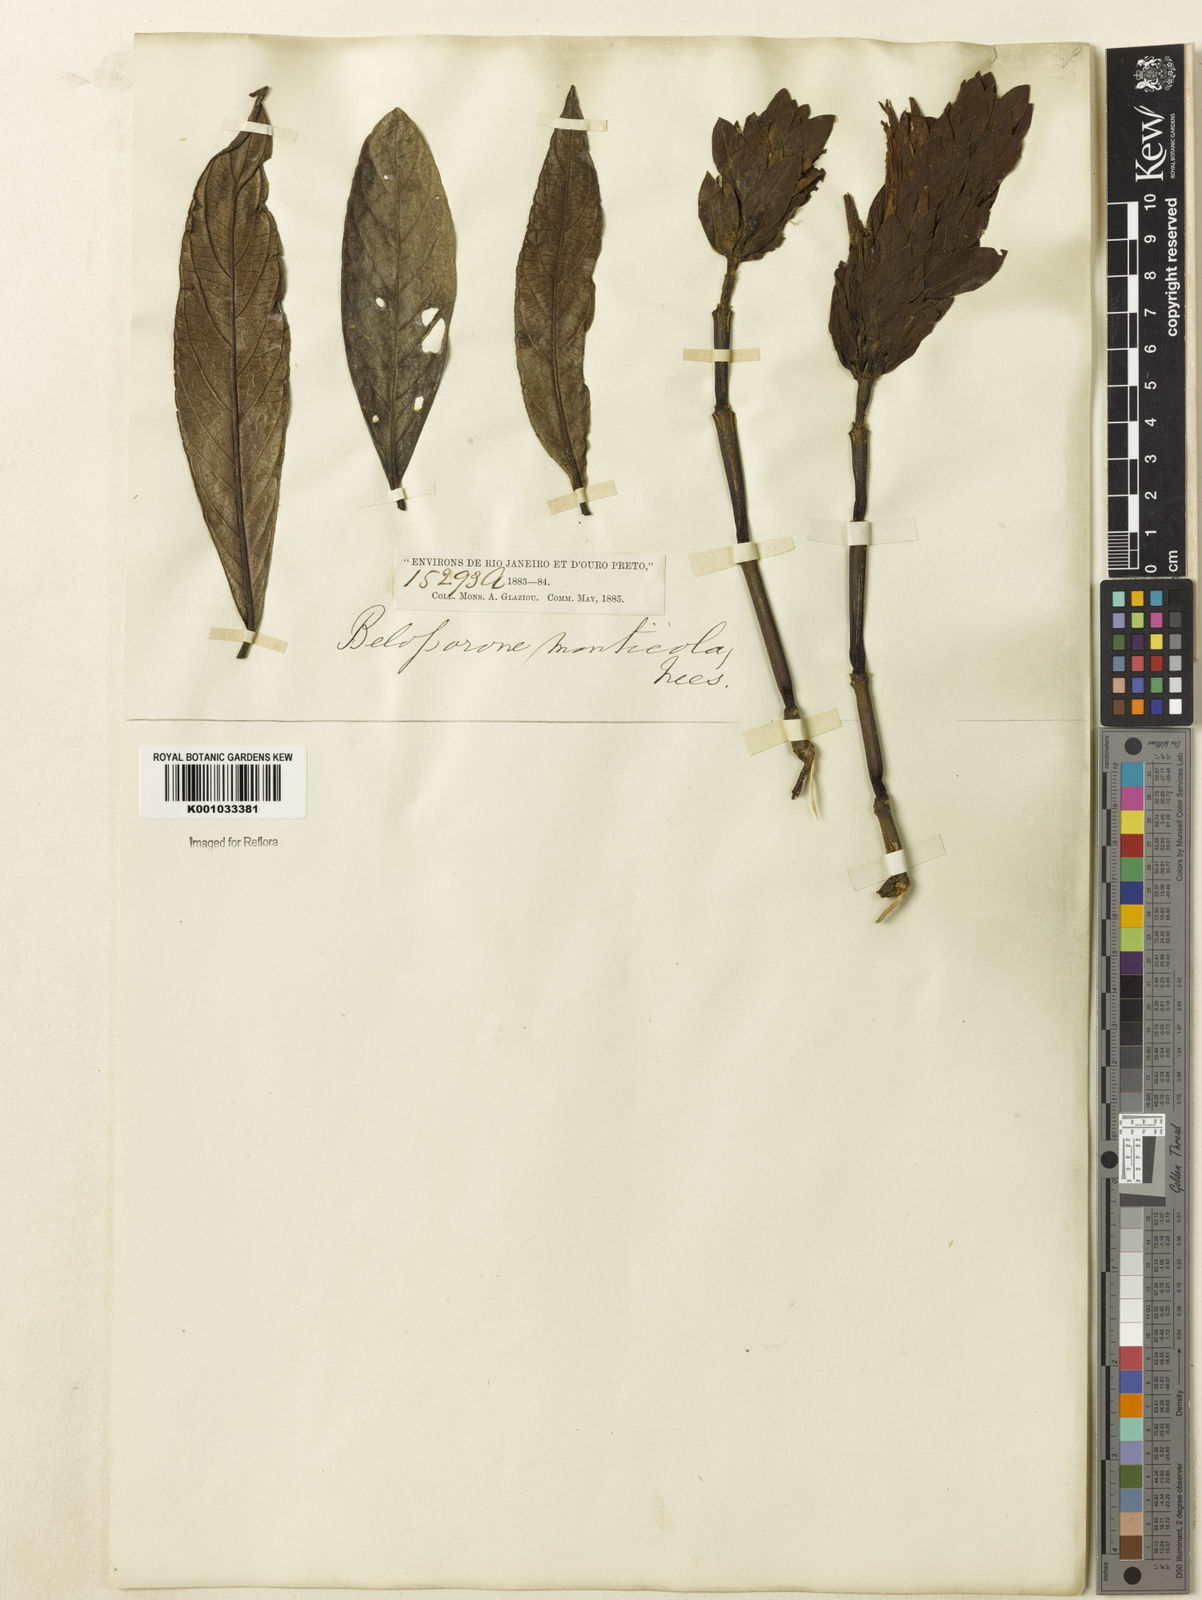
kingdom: Plantae
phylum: Tracheophyta
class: Magnoliopsida
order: Lamiales
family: Acanthaceae
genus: Justicia
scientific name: Justicia monticola
